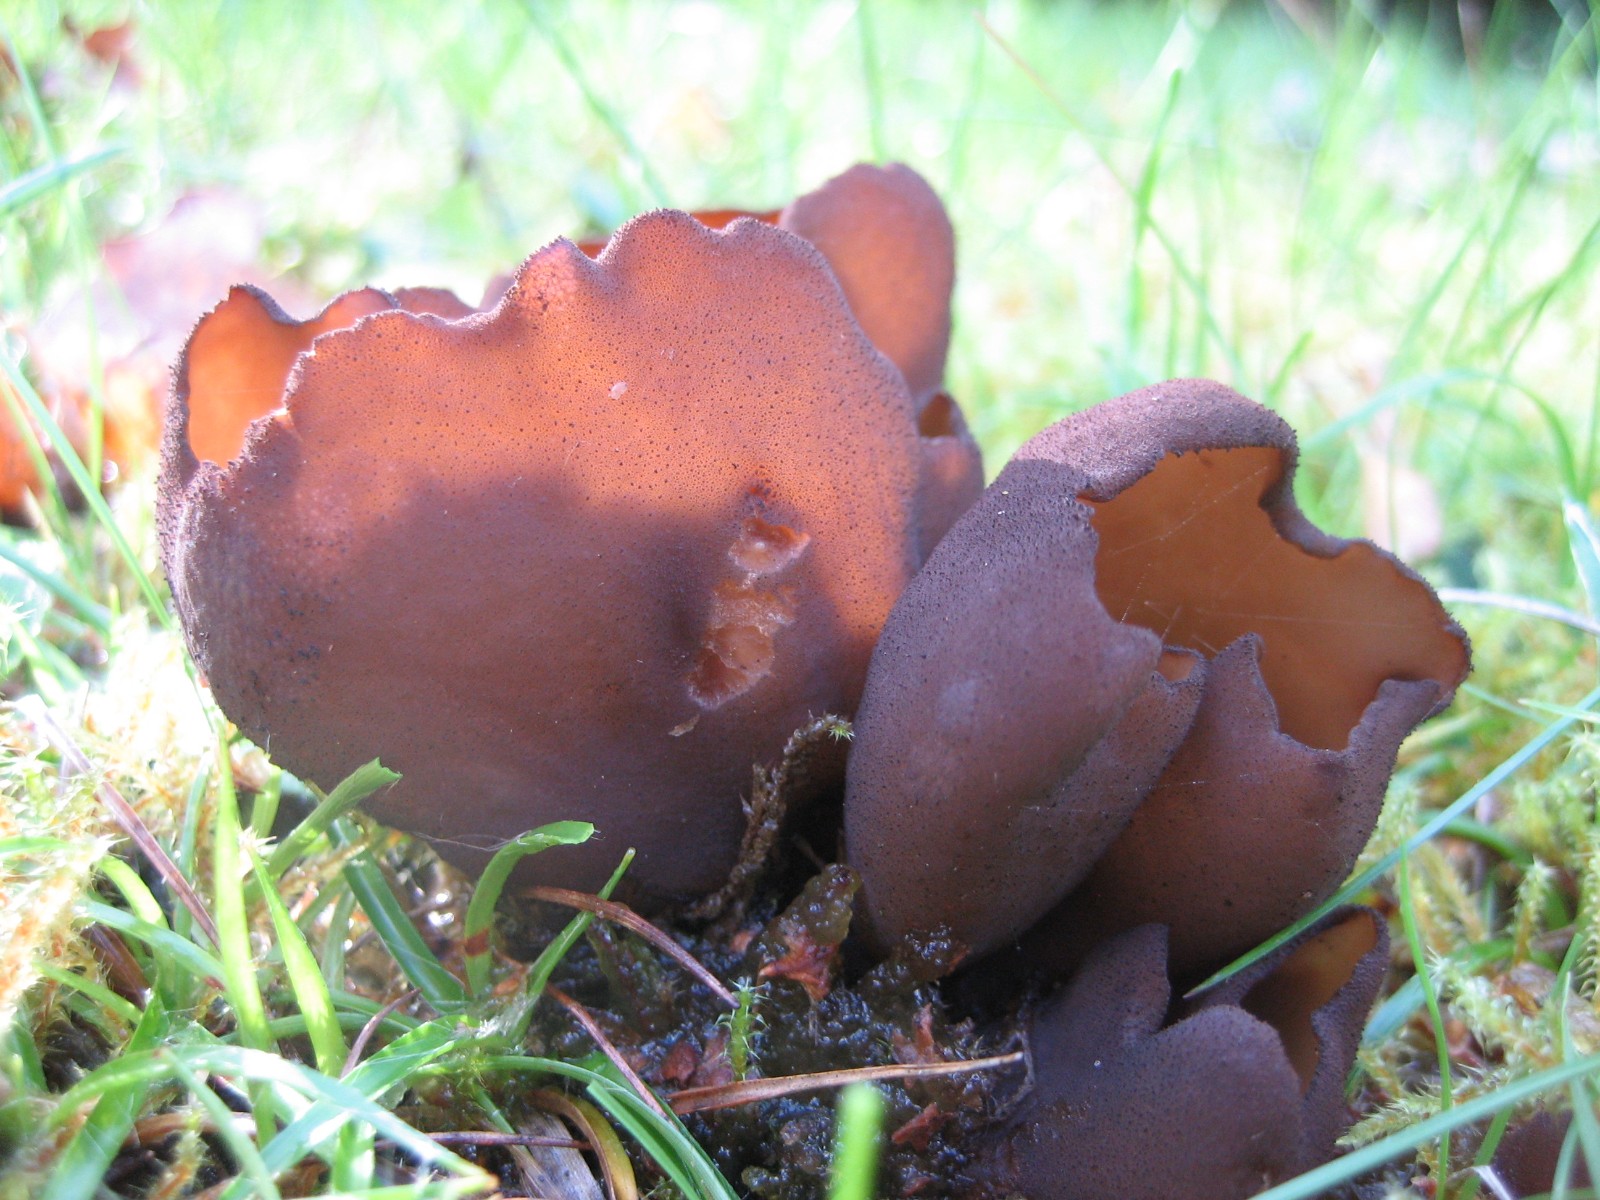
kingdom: Fungi
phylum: Ascomycota
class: Pezizomycetes
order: Pezizales
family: Otideaceae
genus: Otidea
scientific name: Otidea bufonia
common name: brun ørebæger
